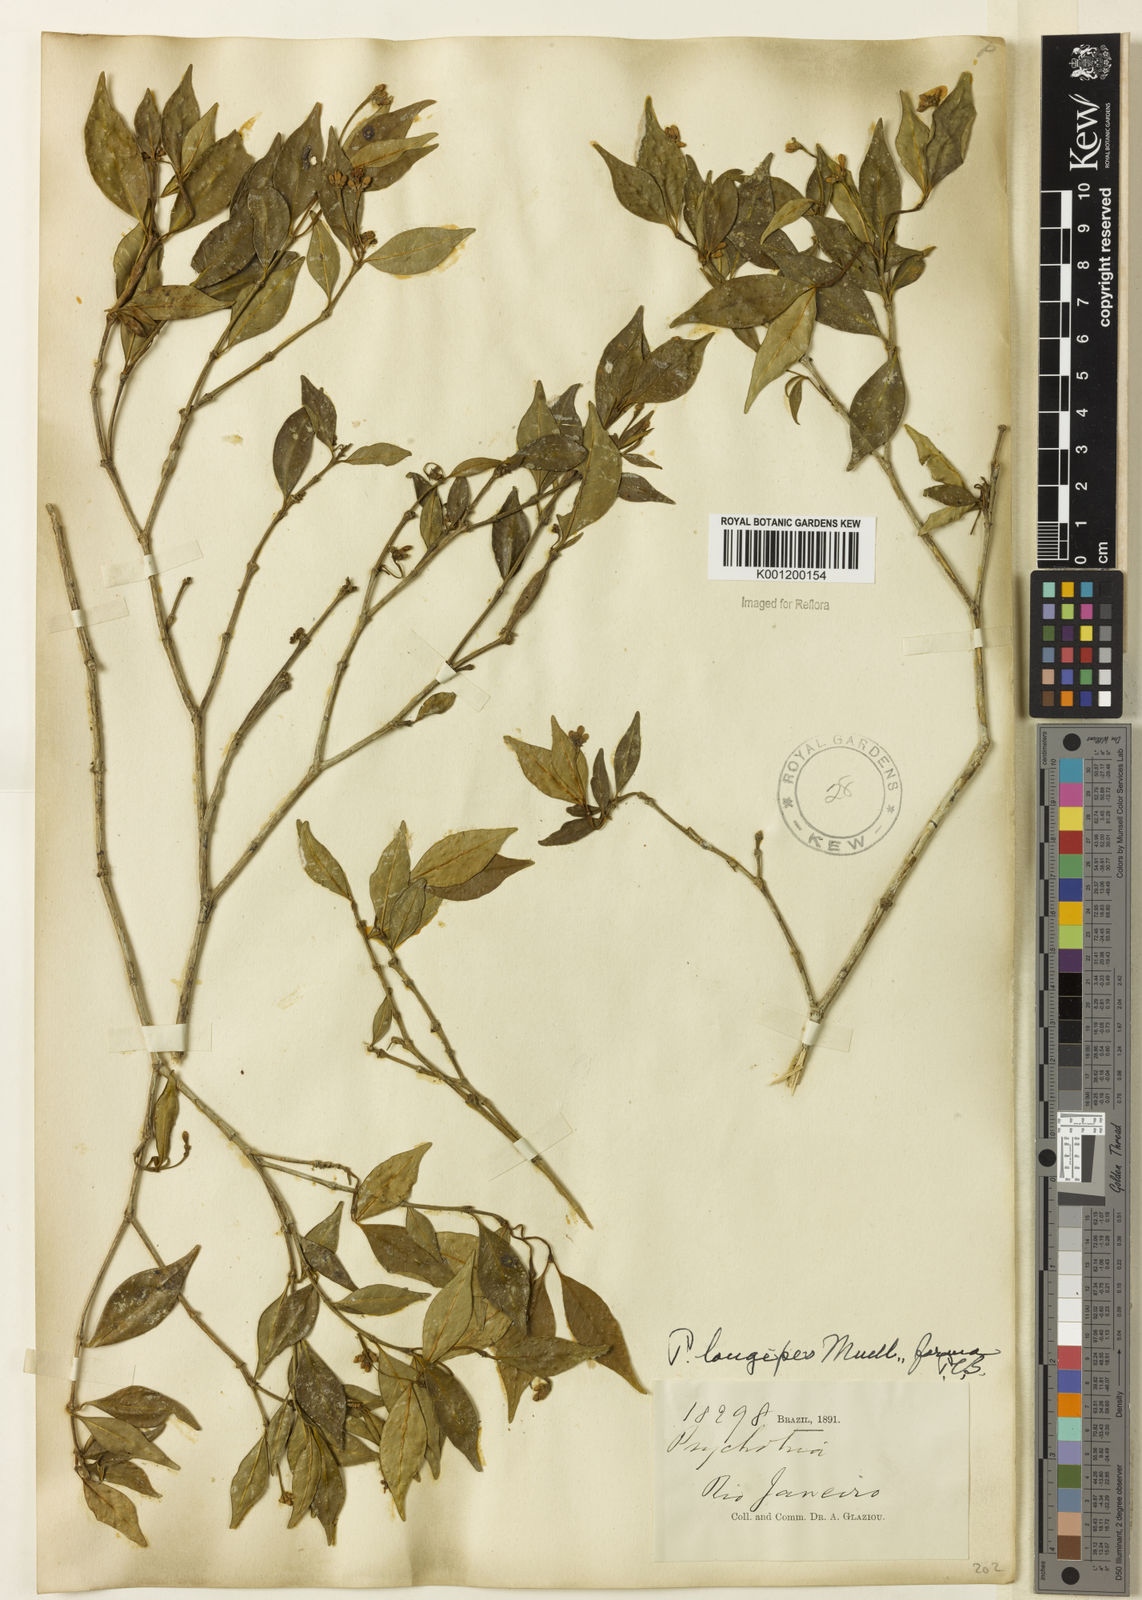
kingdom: Plantae
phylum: Tracheophyta
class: Magnoliopsida
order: Gentianales
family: Rubiaceae
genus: Rudgea
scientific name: Rudgea sessilis
